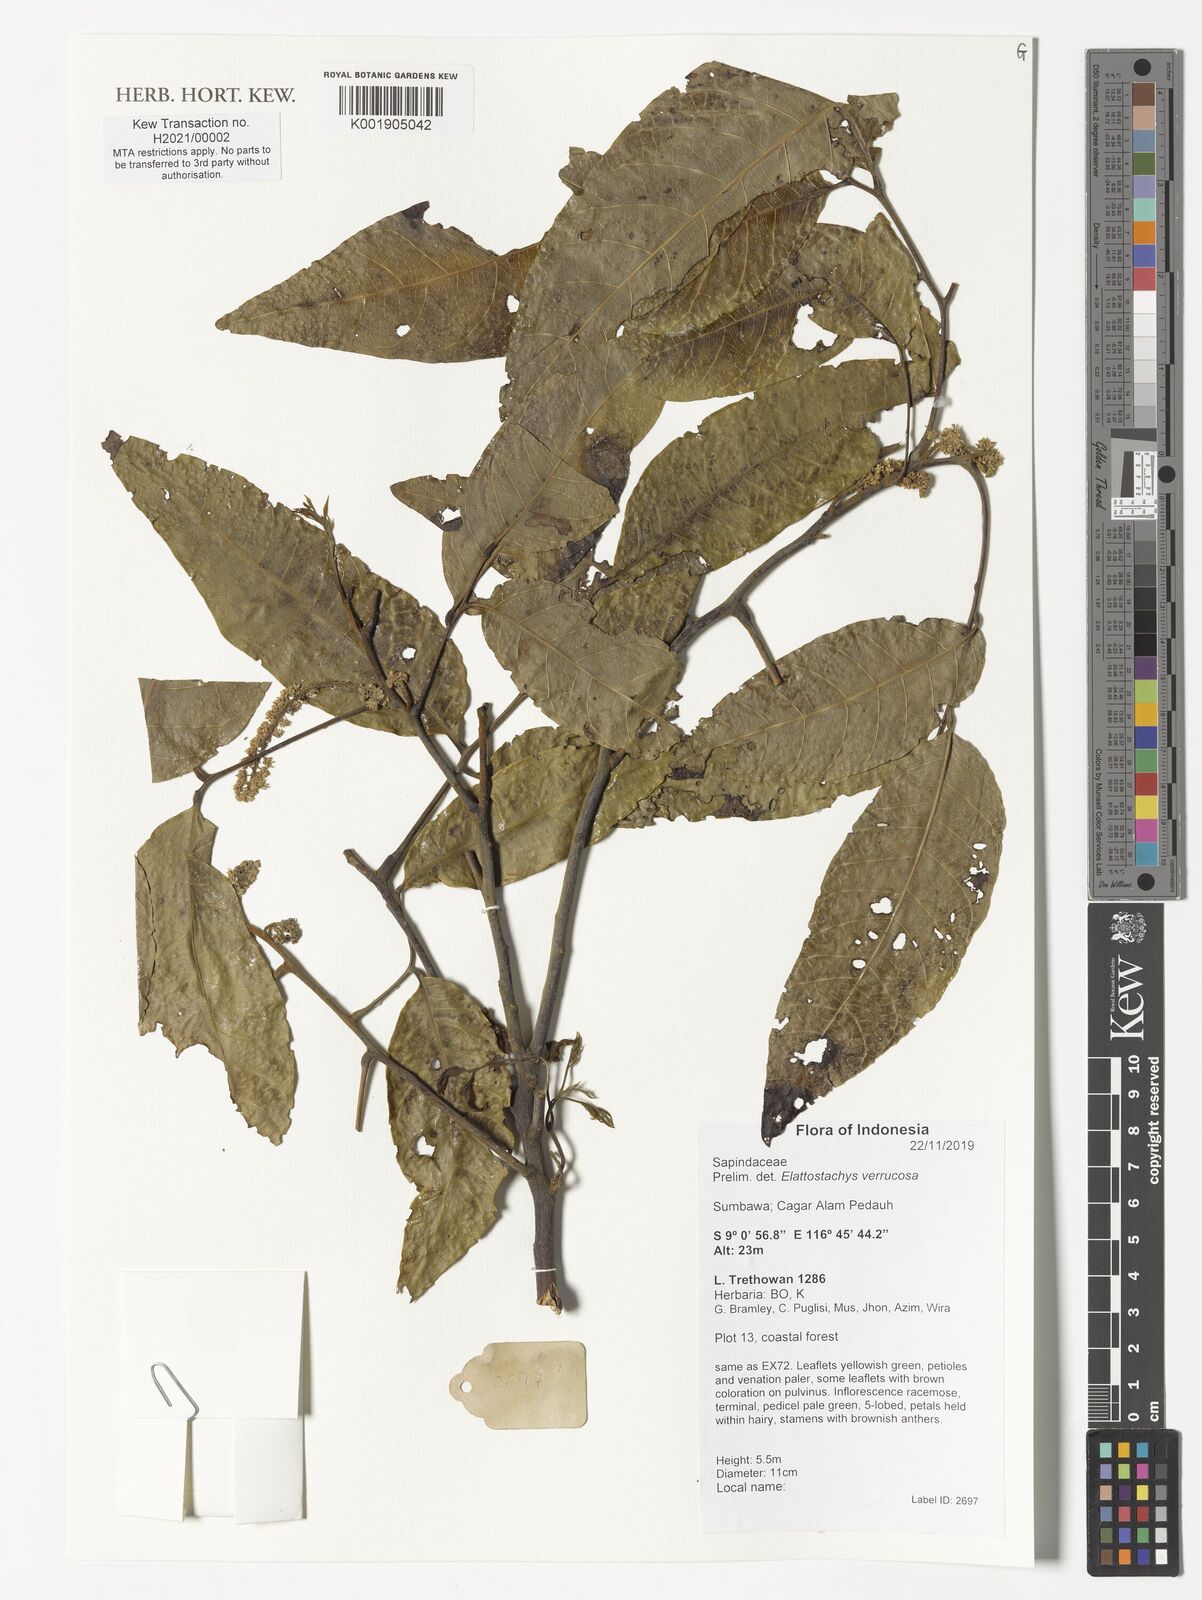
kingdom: Plantae
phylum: Tracheophyta
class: Magnoliopsida
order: Sapindales
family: Sapindaceae
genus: Elattostachys
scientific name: Elattostachys verrucosa
